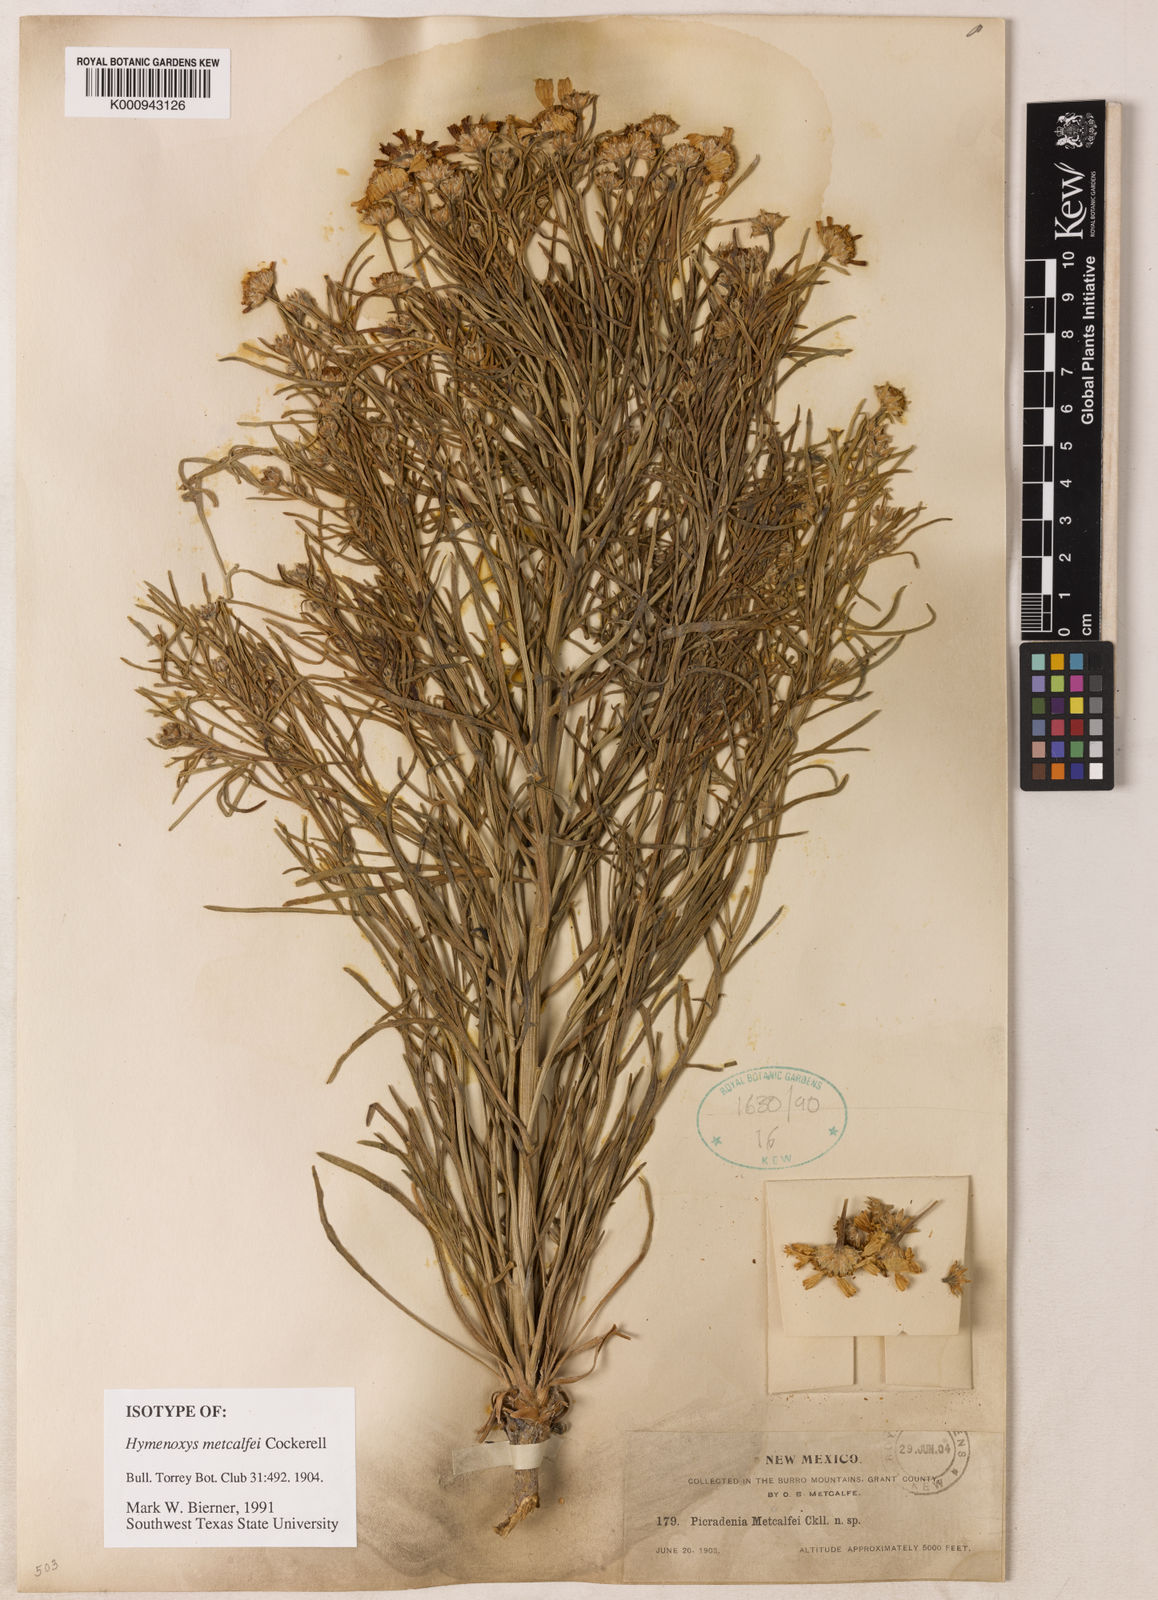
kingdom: Plantae
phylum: Tracheophyta
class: Magnoliopsida
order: Asterales
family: Asteraceae
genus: Hymenoxys
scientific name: Hymenoxys metcalfei
